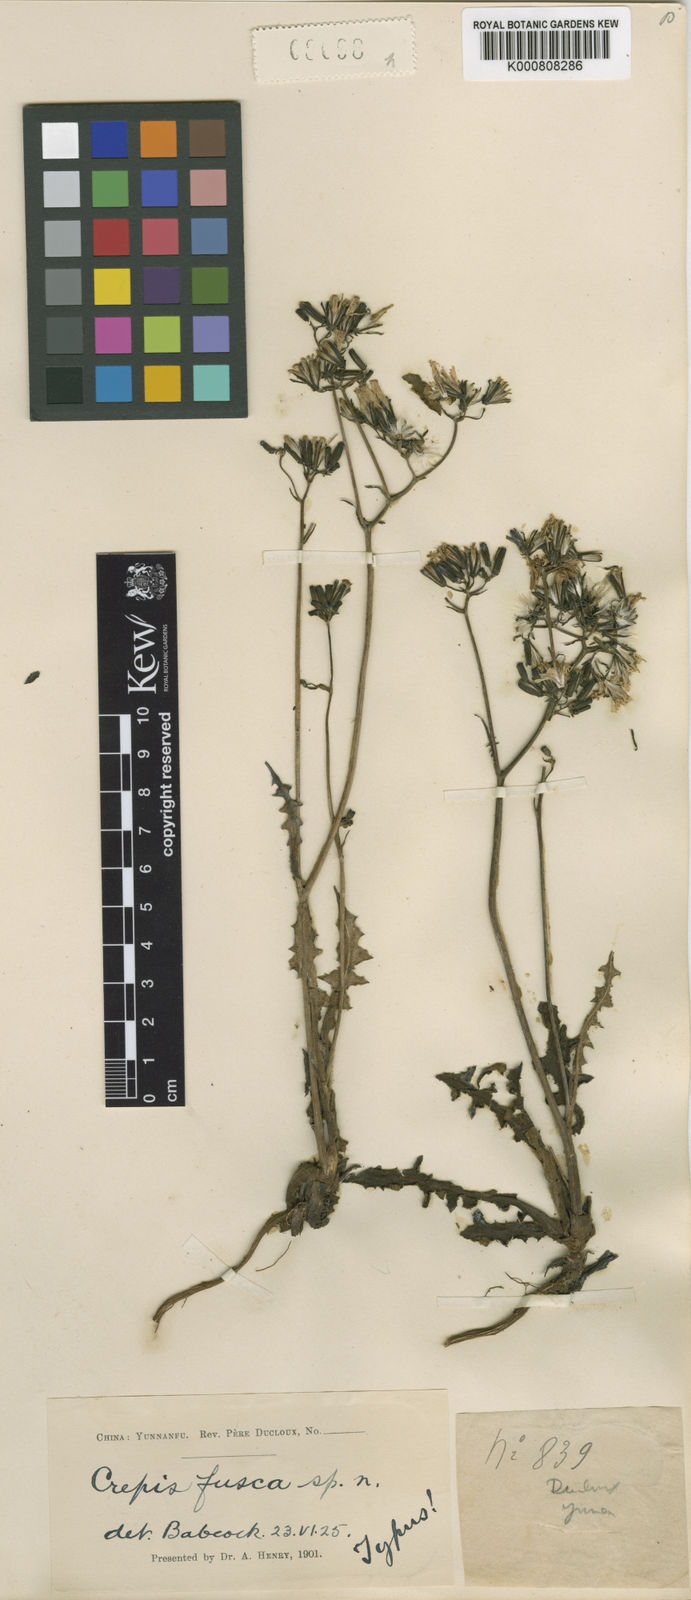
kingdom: Plantae
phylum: Tracheophyta
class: Magnoliopsida
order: Asterales
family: Asteraceae
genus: Youngia
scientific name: Youngia fusca
